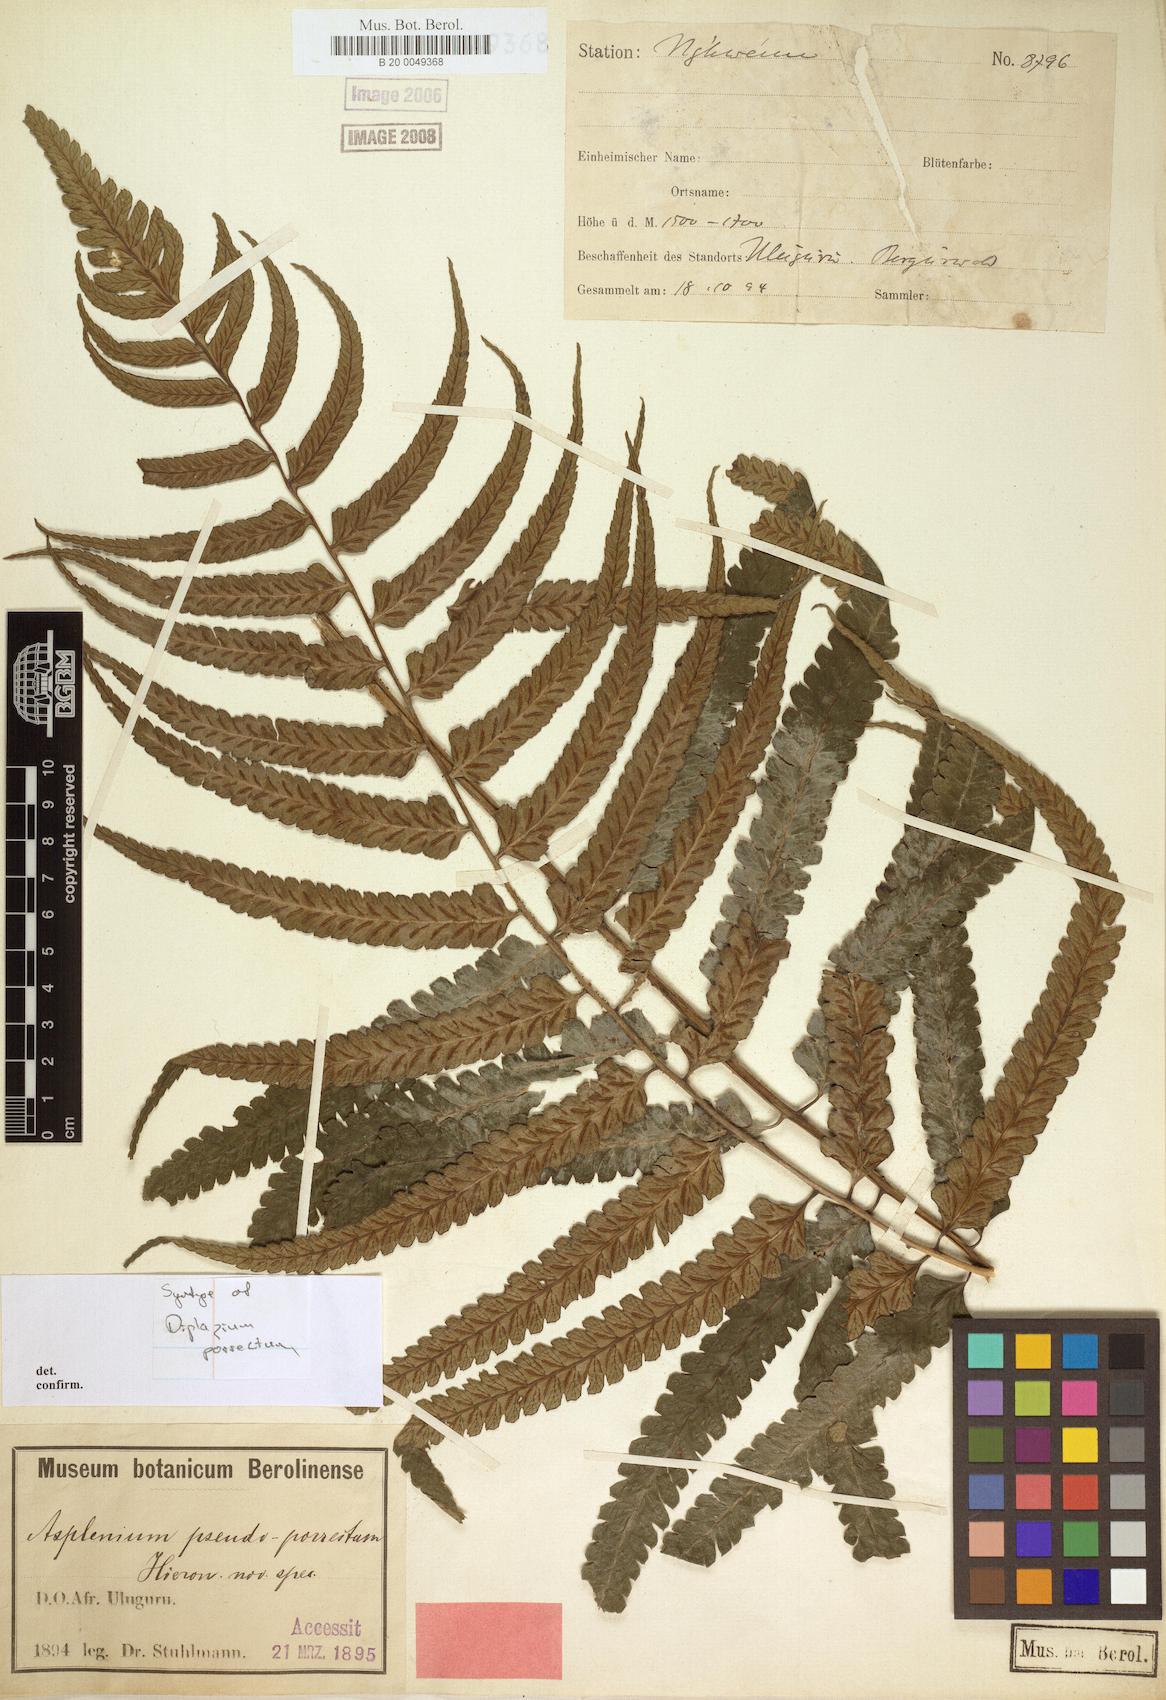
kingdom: Plantae
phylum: Tracheophyta
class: Polypodiopsida
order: Polypodiales
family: Athyriaceae
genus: Diplazium
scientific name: Diplazium pallidum
